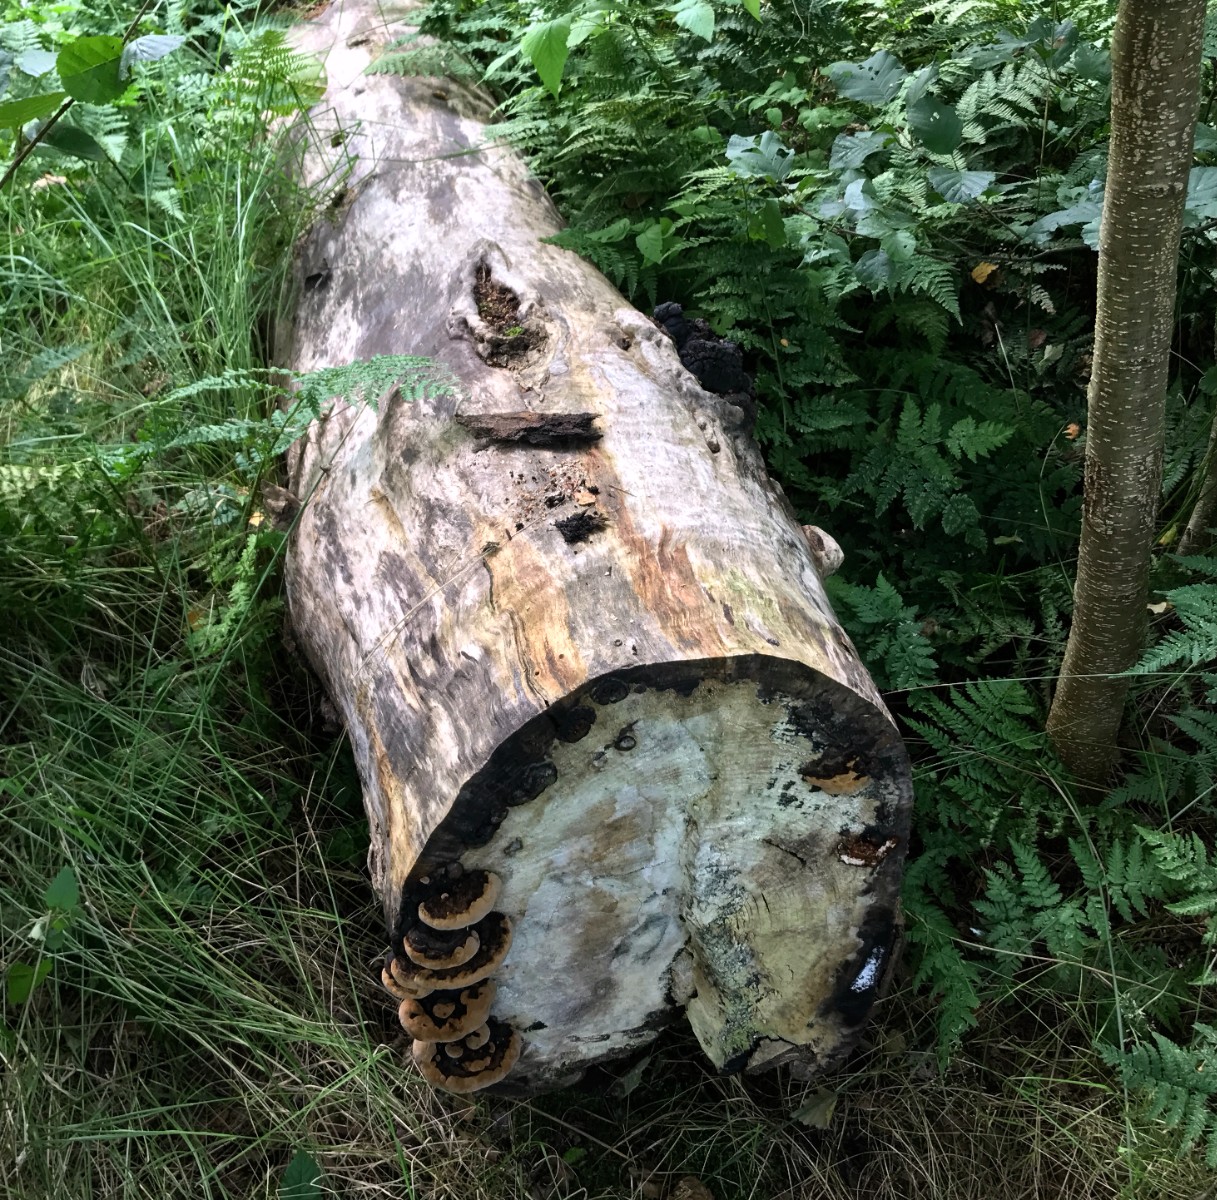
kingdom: Fungi
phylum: Basidiomycota
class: Agaricomycetes
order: Hymenochaetales
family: Hymenochaetaceae
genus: Phellinus
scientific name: Phellinus populicola
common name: poppel-ildporesvamp
